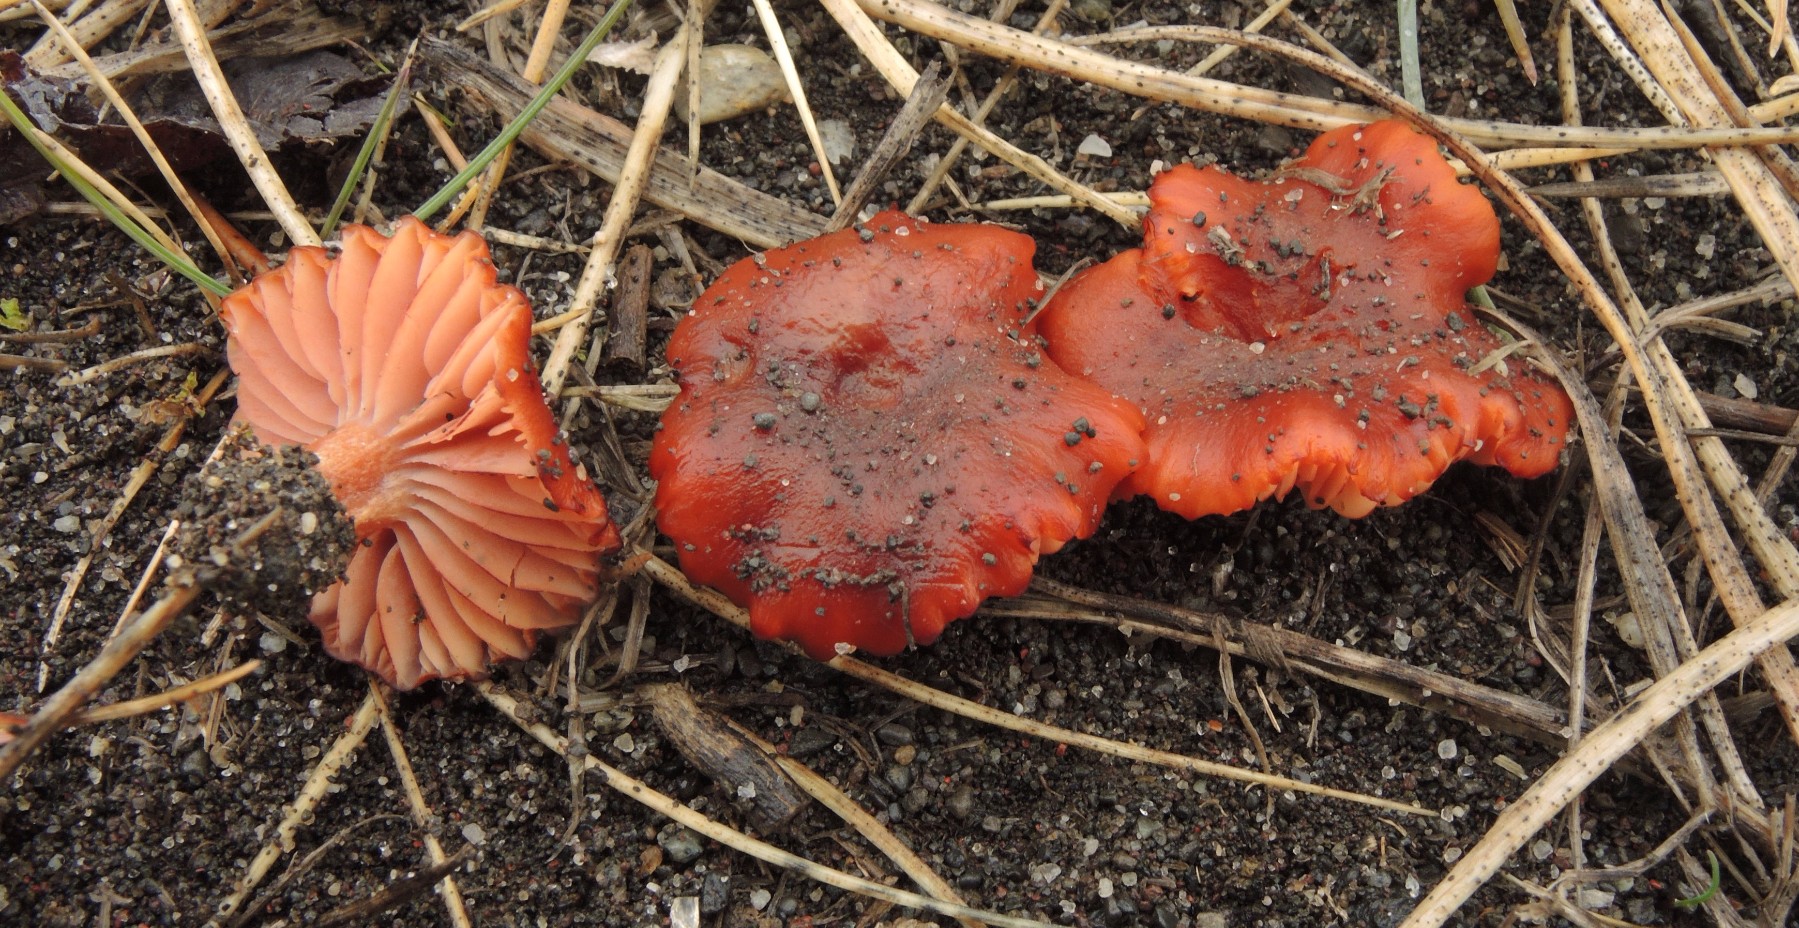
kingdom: Fungi
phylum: Basidiomycota
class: Agaricomycetes
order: Agaricales
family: Hydnangiaceae
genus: Laccaria
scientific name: Laccaria maritima
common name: klit-ametysthat
